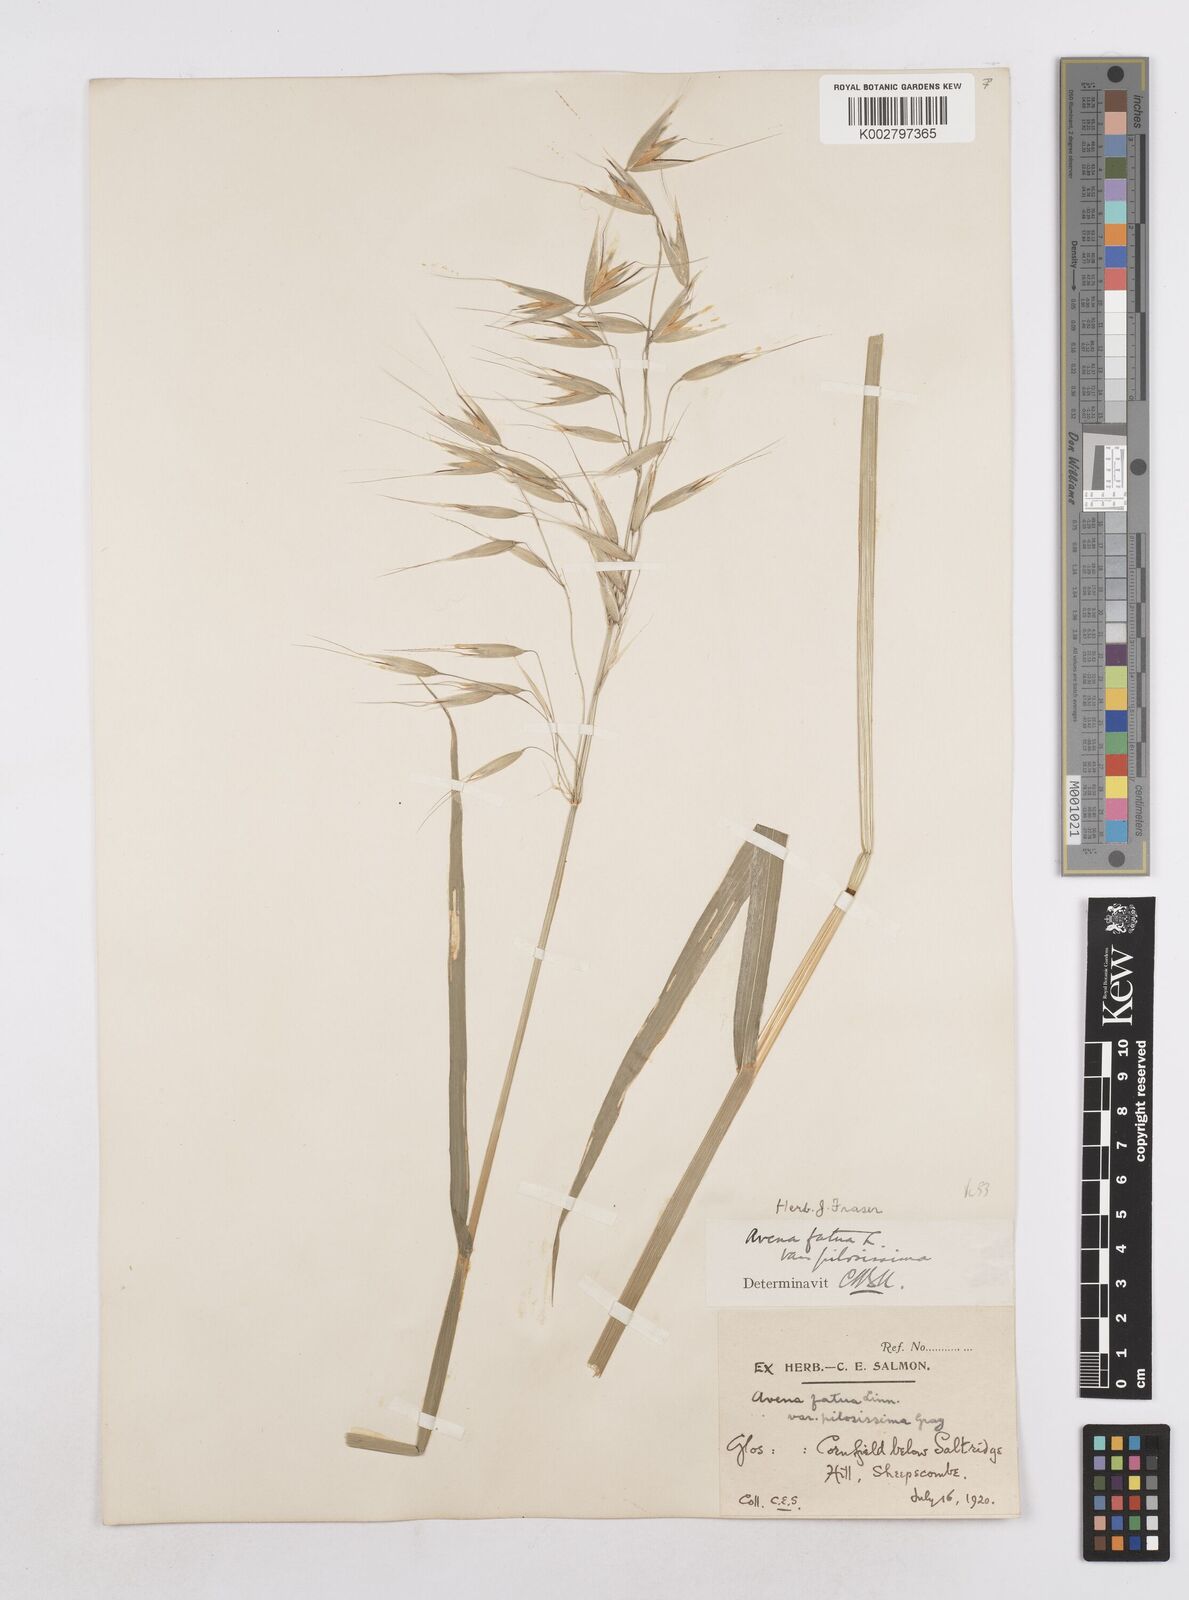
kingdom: Plantae
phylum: Tracheophyta
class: Liliopsida
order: Poales
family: Poaceae
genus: Avena
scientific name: Avena fatua
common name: Wild oat
